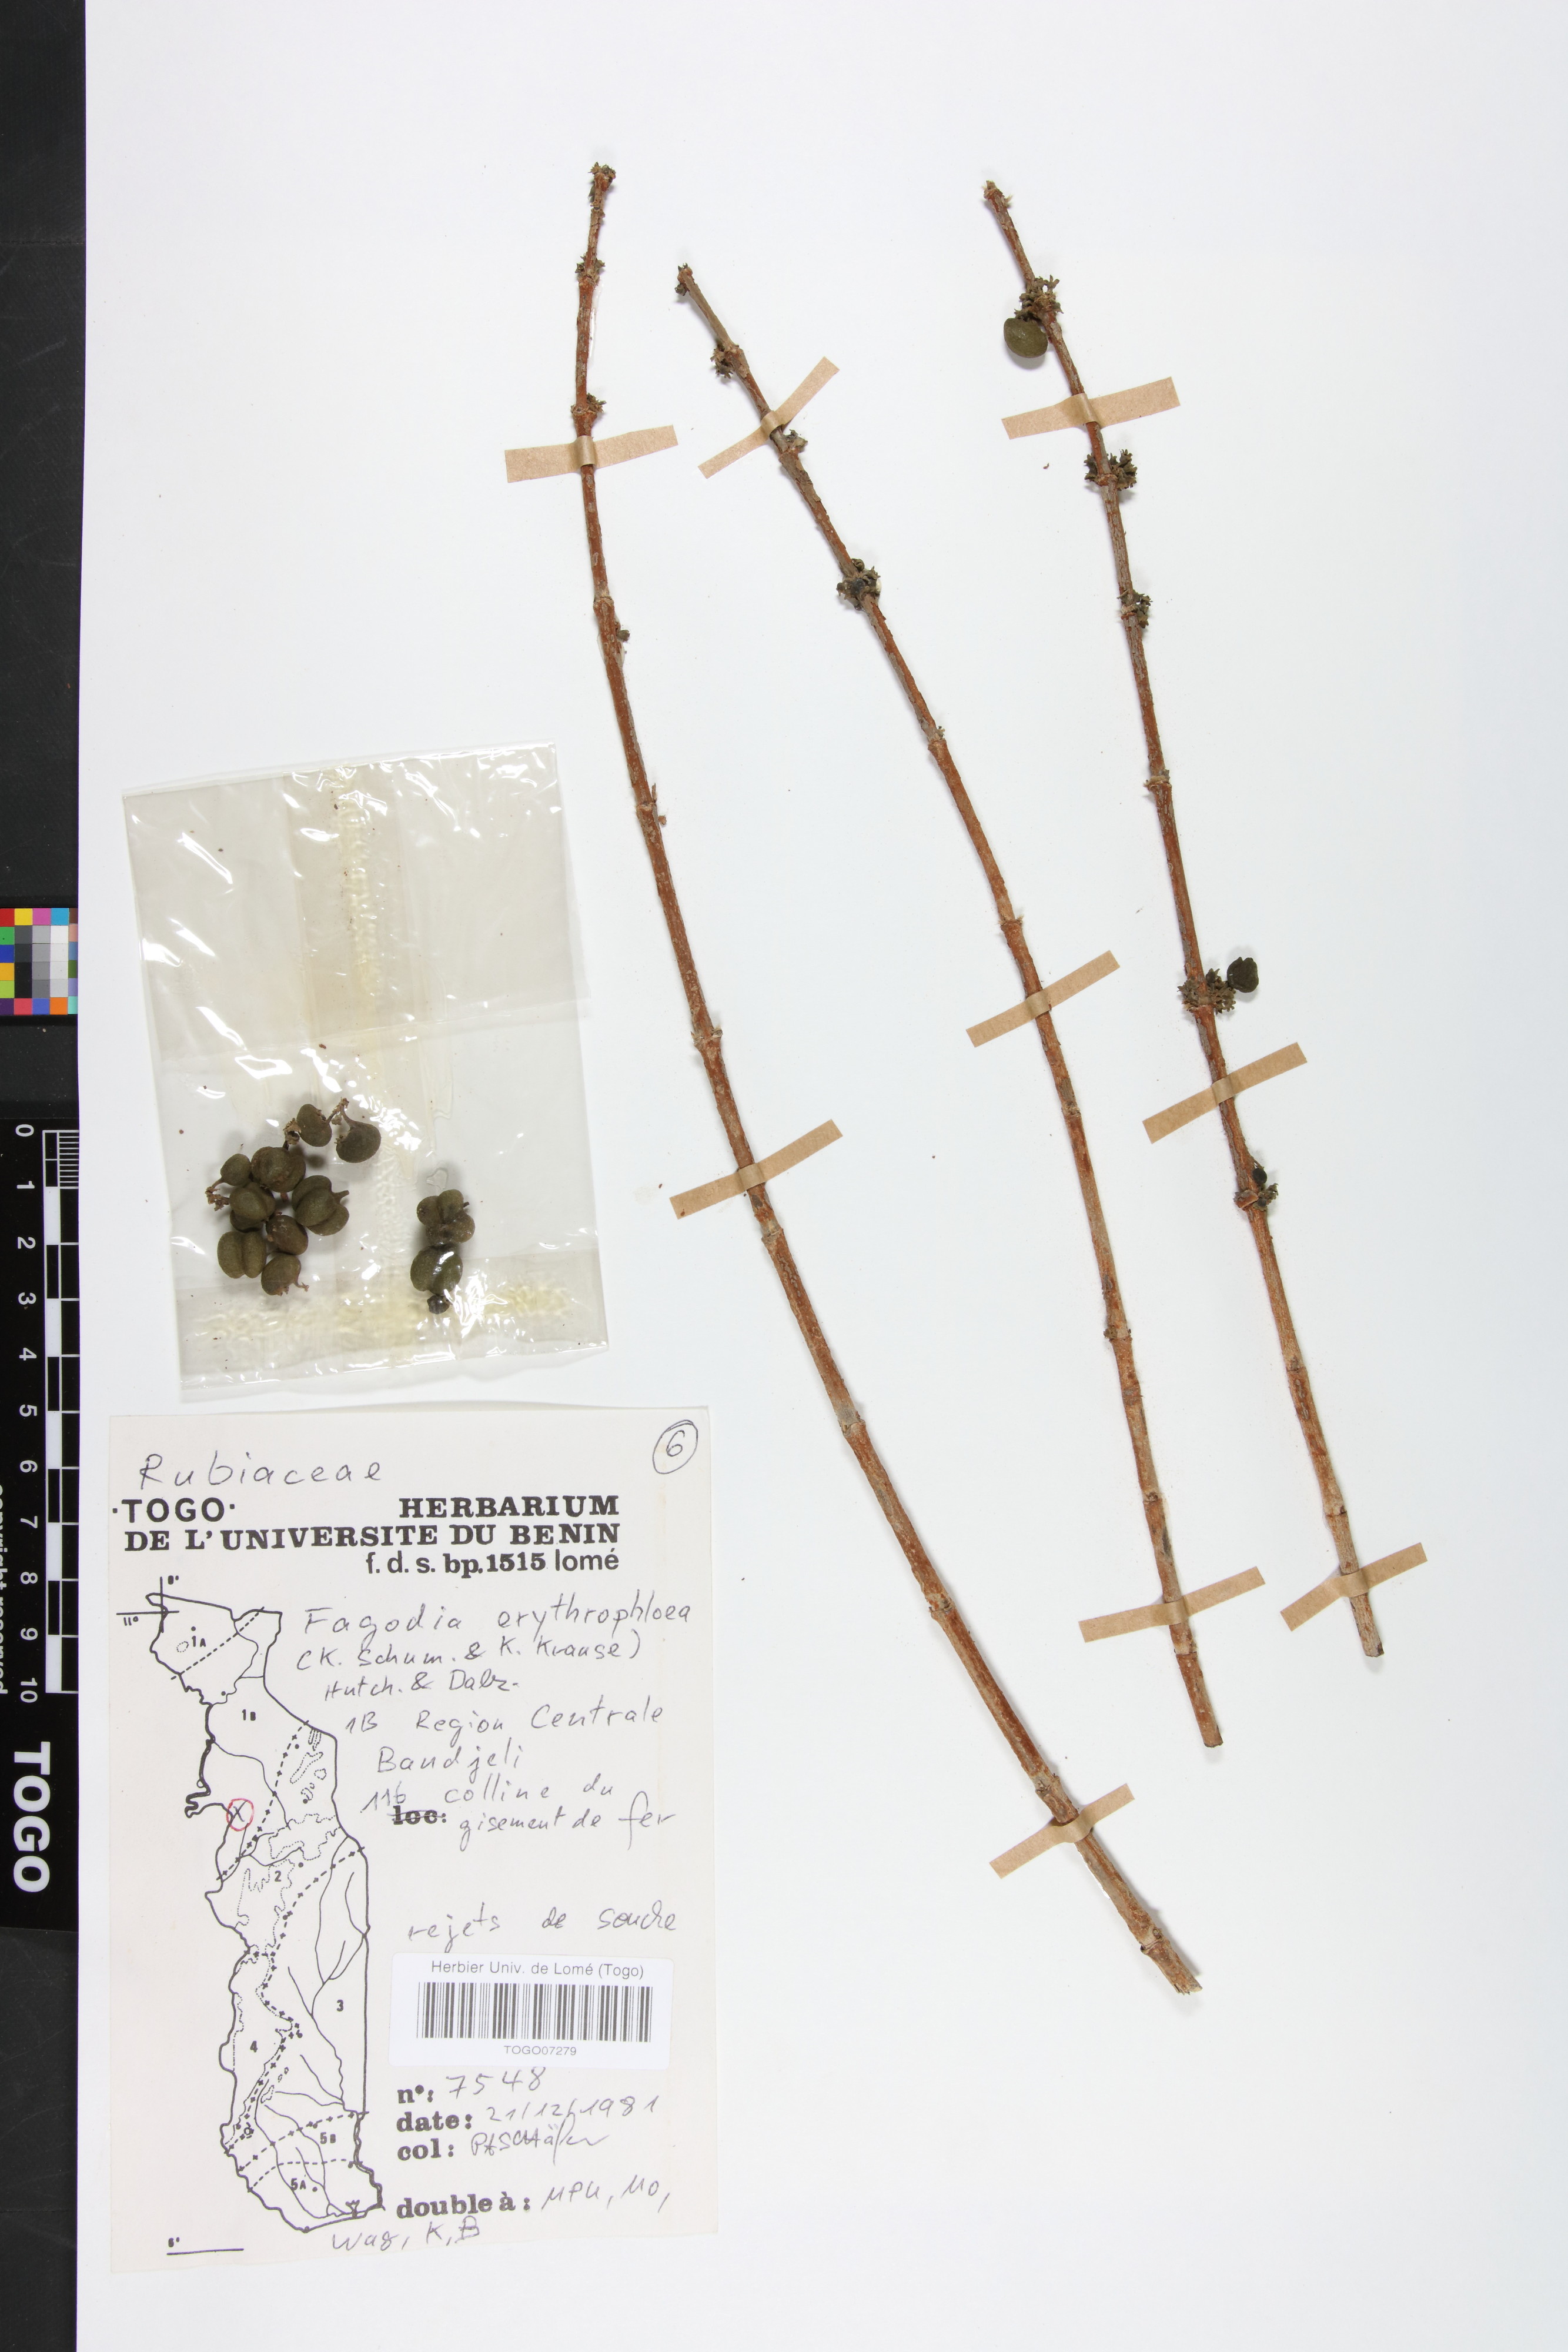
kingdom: Plantae
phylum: Tracheophyta
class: Magnoliopsida
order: Gentianales
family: Rubiaceae
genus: Fadogia
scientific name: Fadogia erythrophloea
